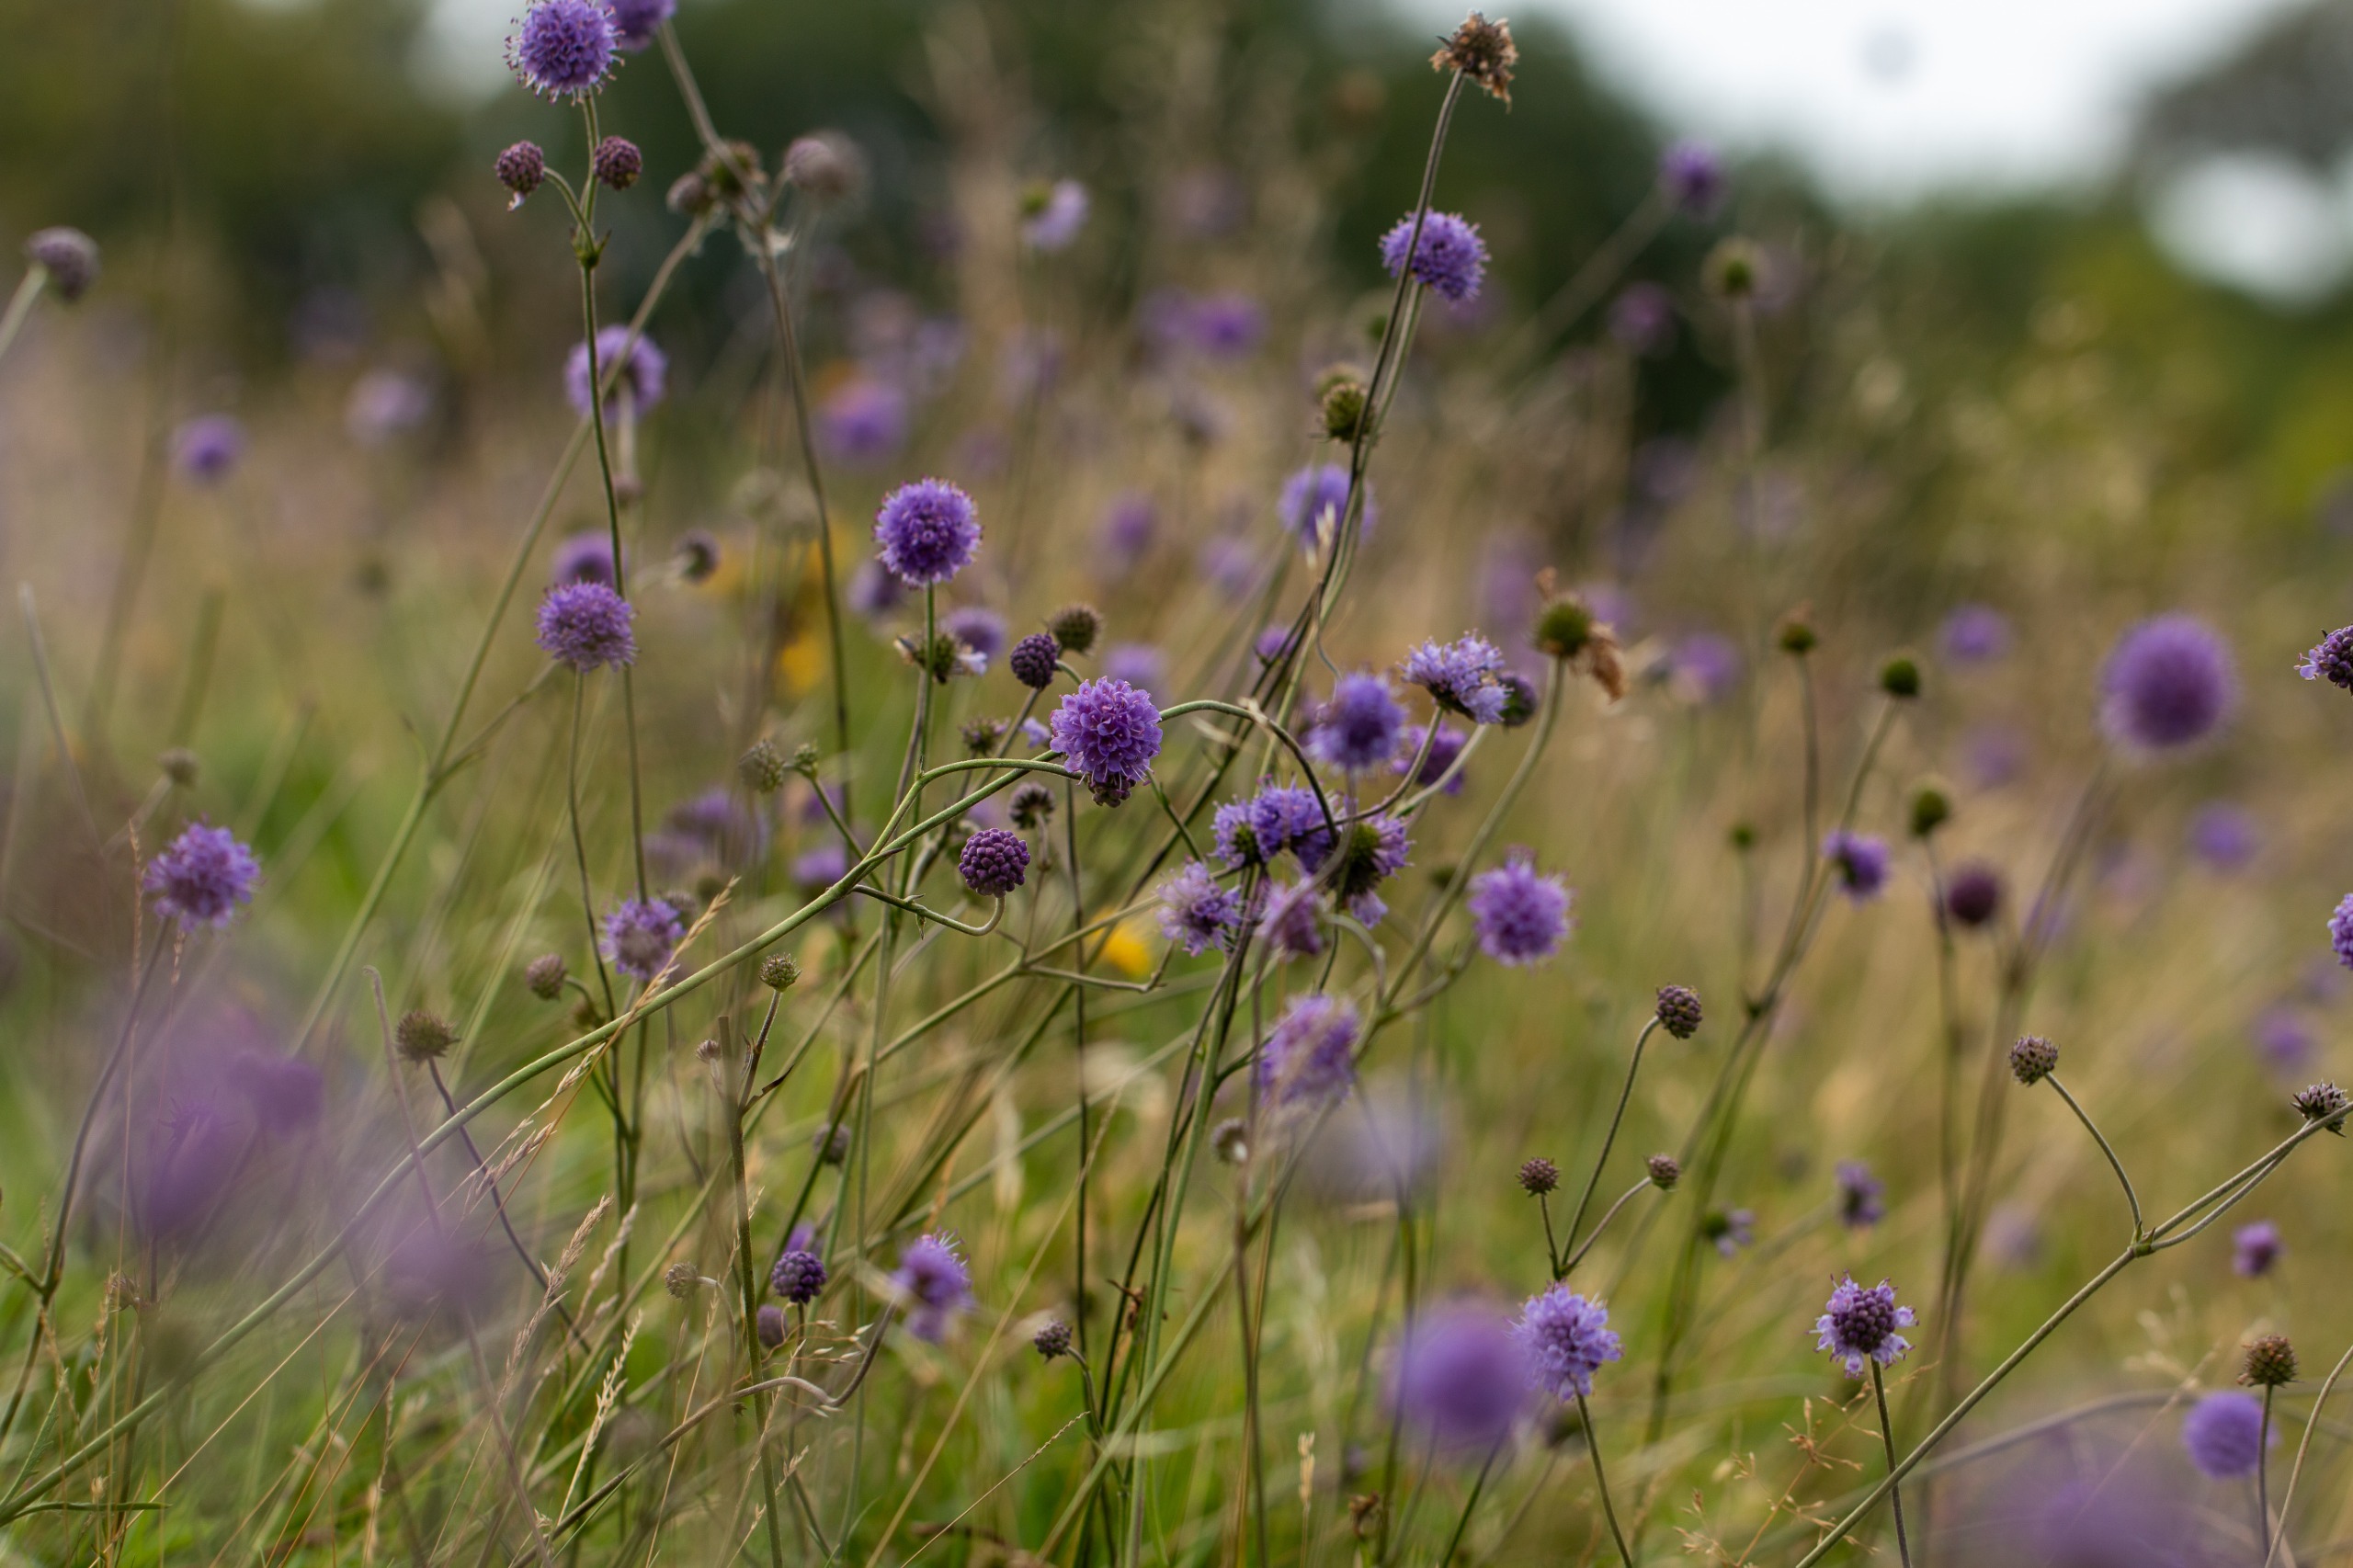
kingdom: Plantae
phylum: Tracheophyta
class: Magnoliopsida
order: Dipsacales
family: Caprifoliaceae
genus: Succisa
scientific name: Succisa pratensis
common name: Djævelsbid
